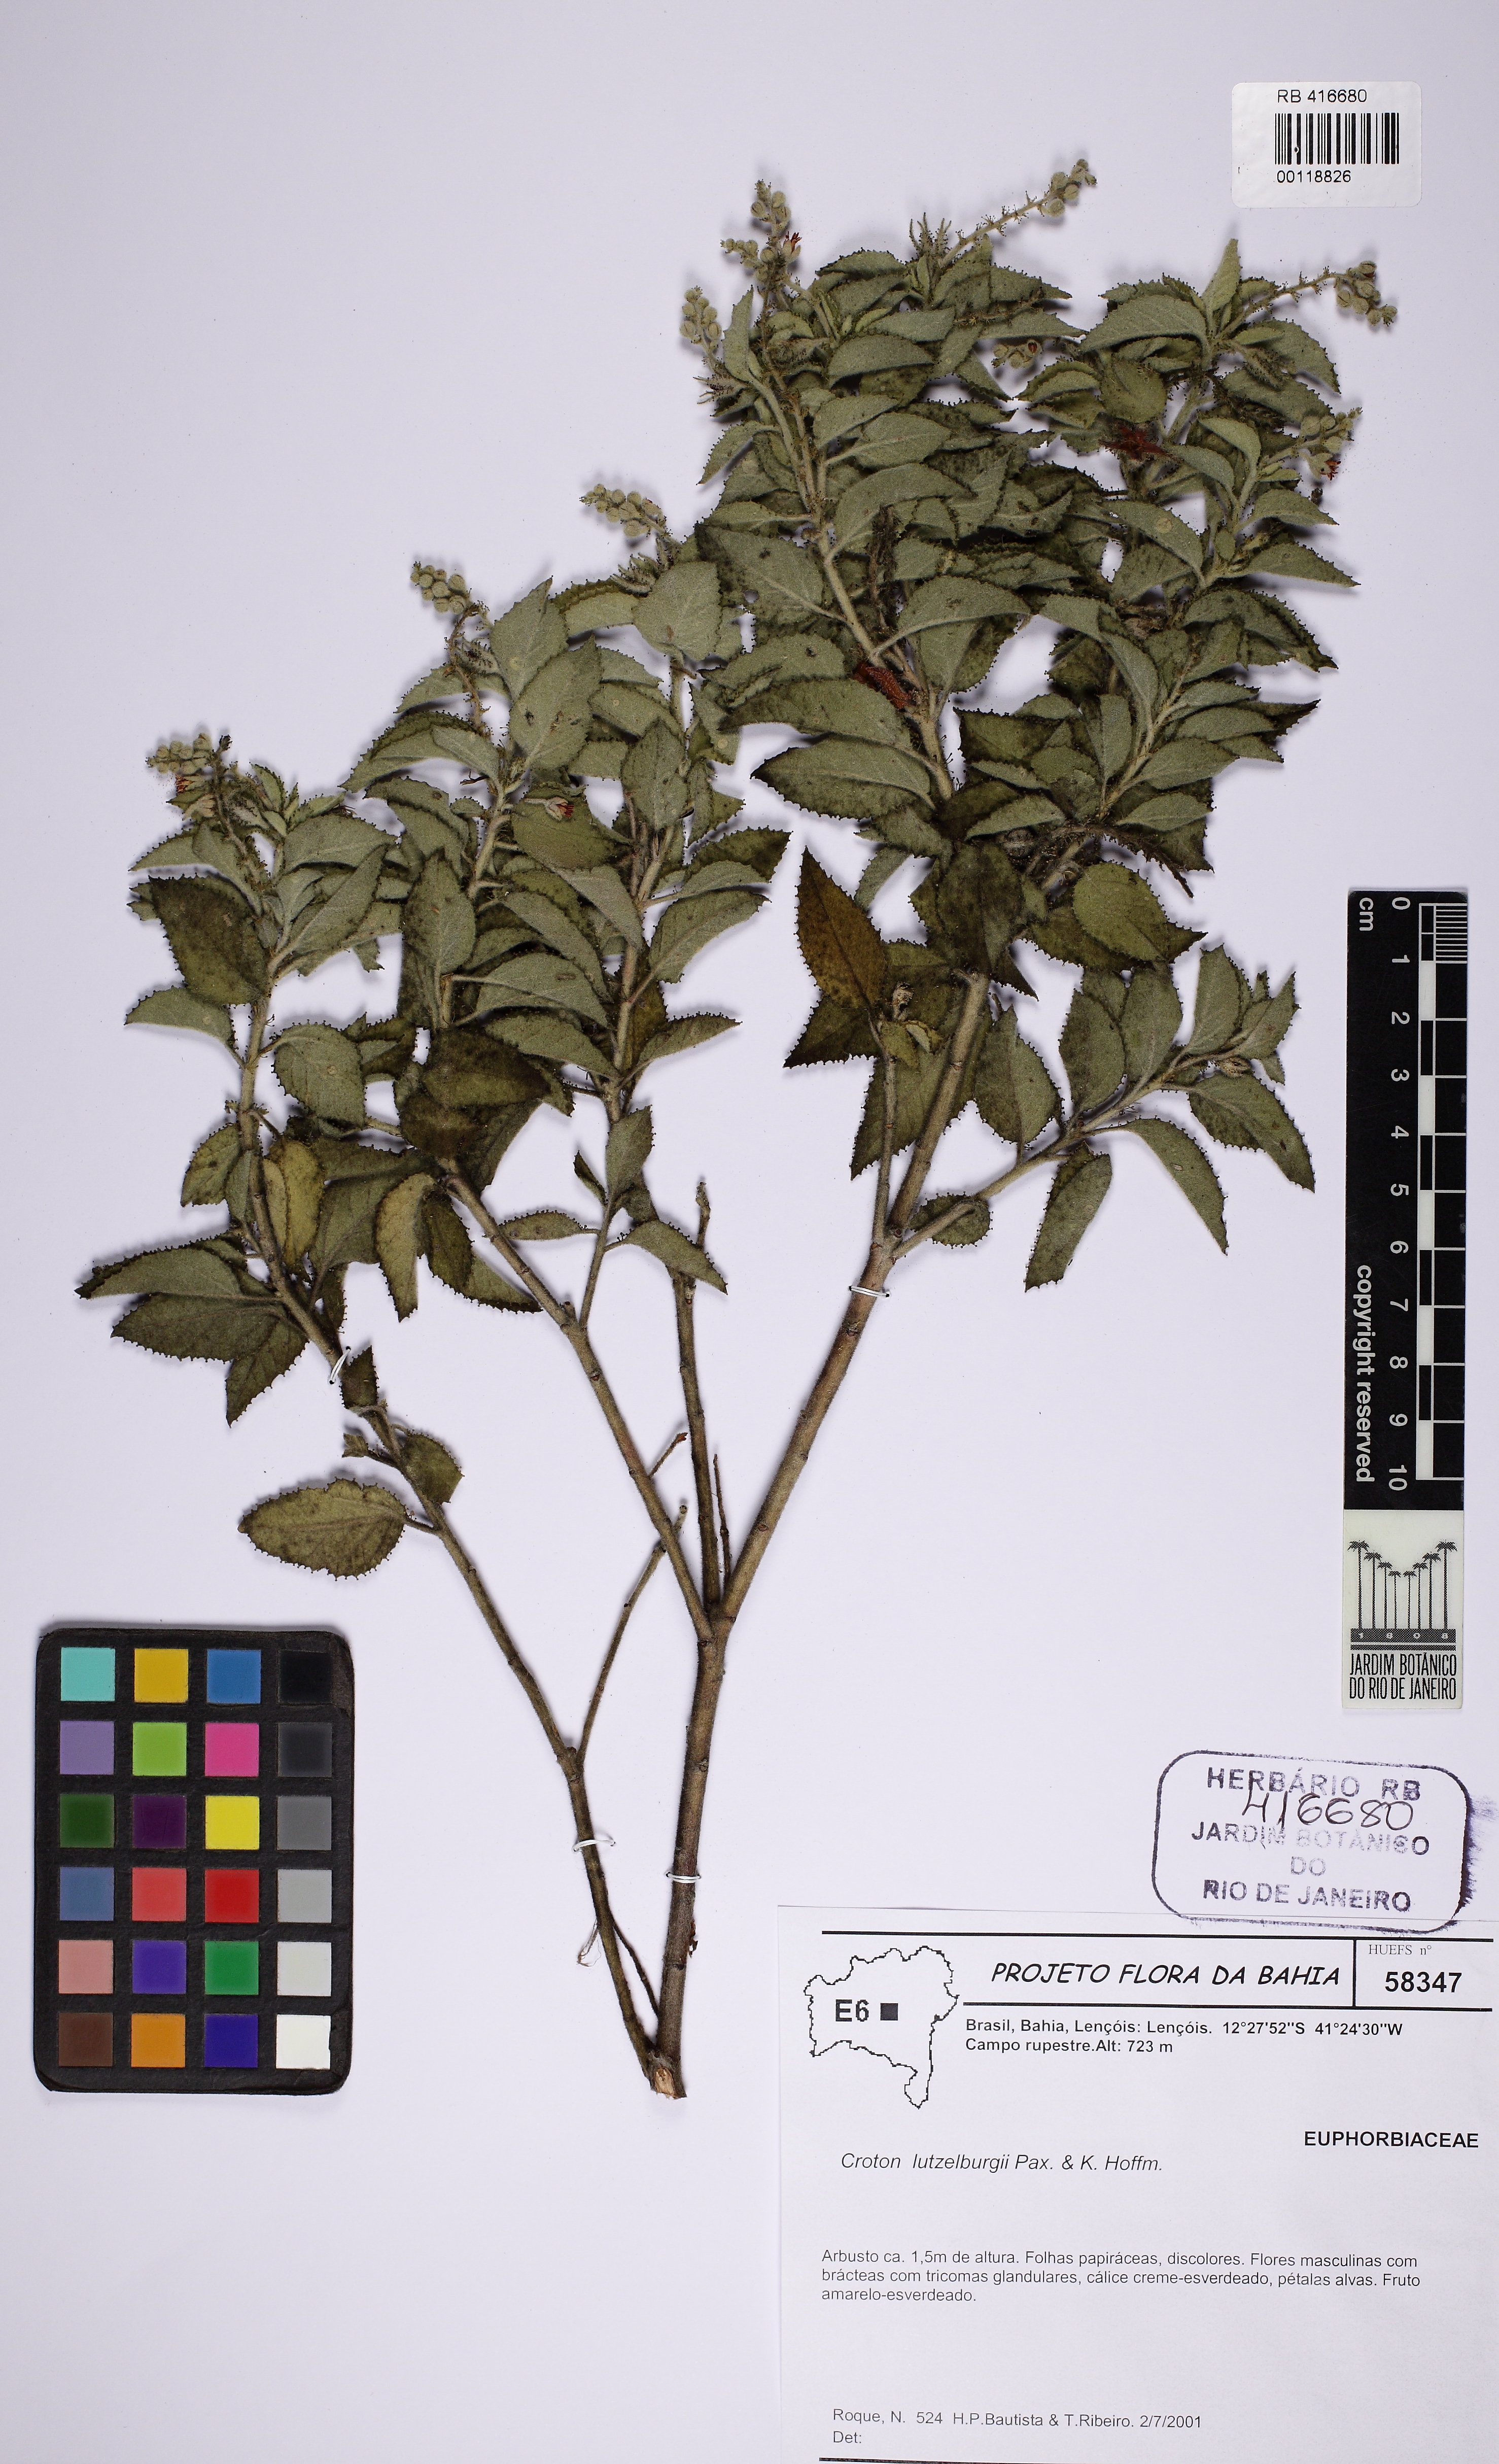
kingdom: Plantae
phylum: Tracheophyta
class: Magnoliopsida
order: Malpighiales
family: Euphorbiaceae
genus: Croton
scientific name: Croton lutzelburgii
